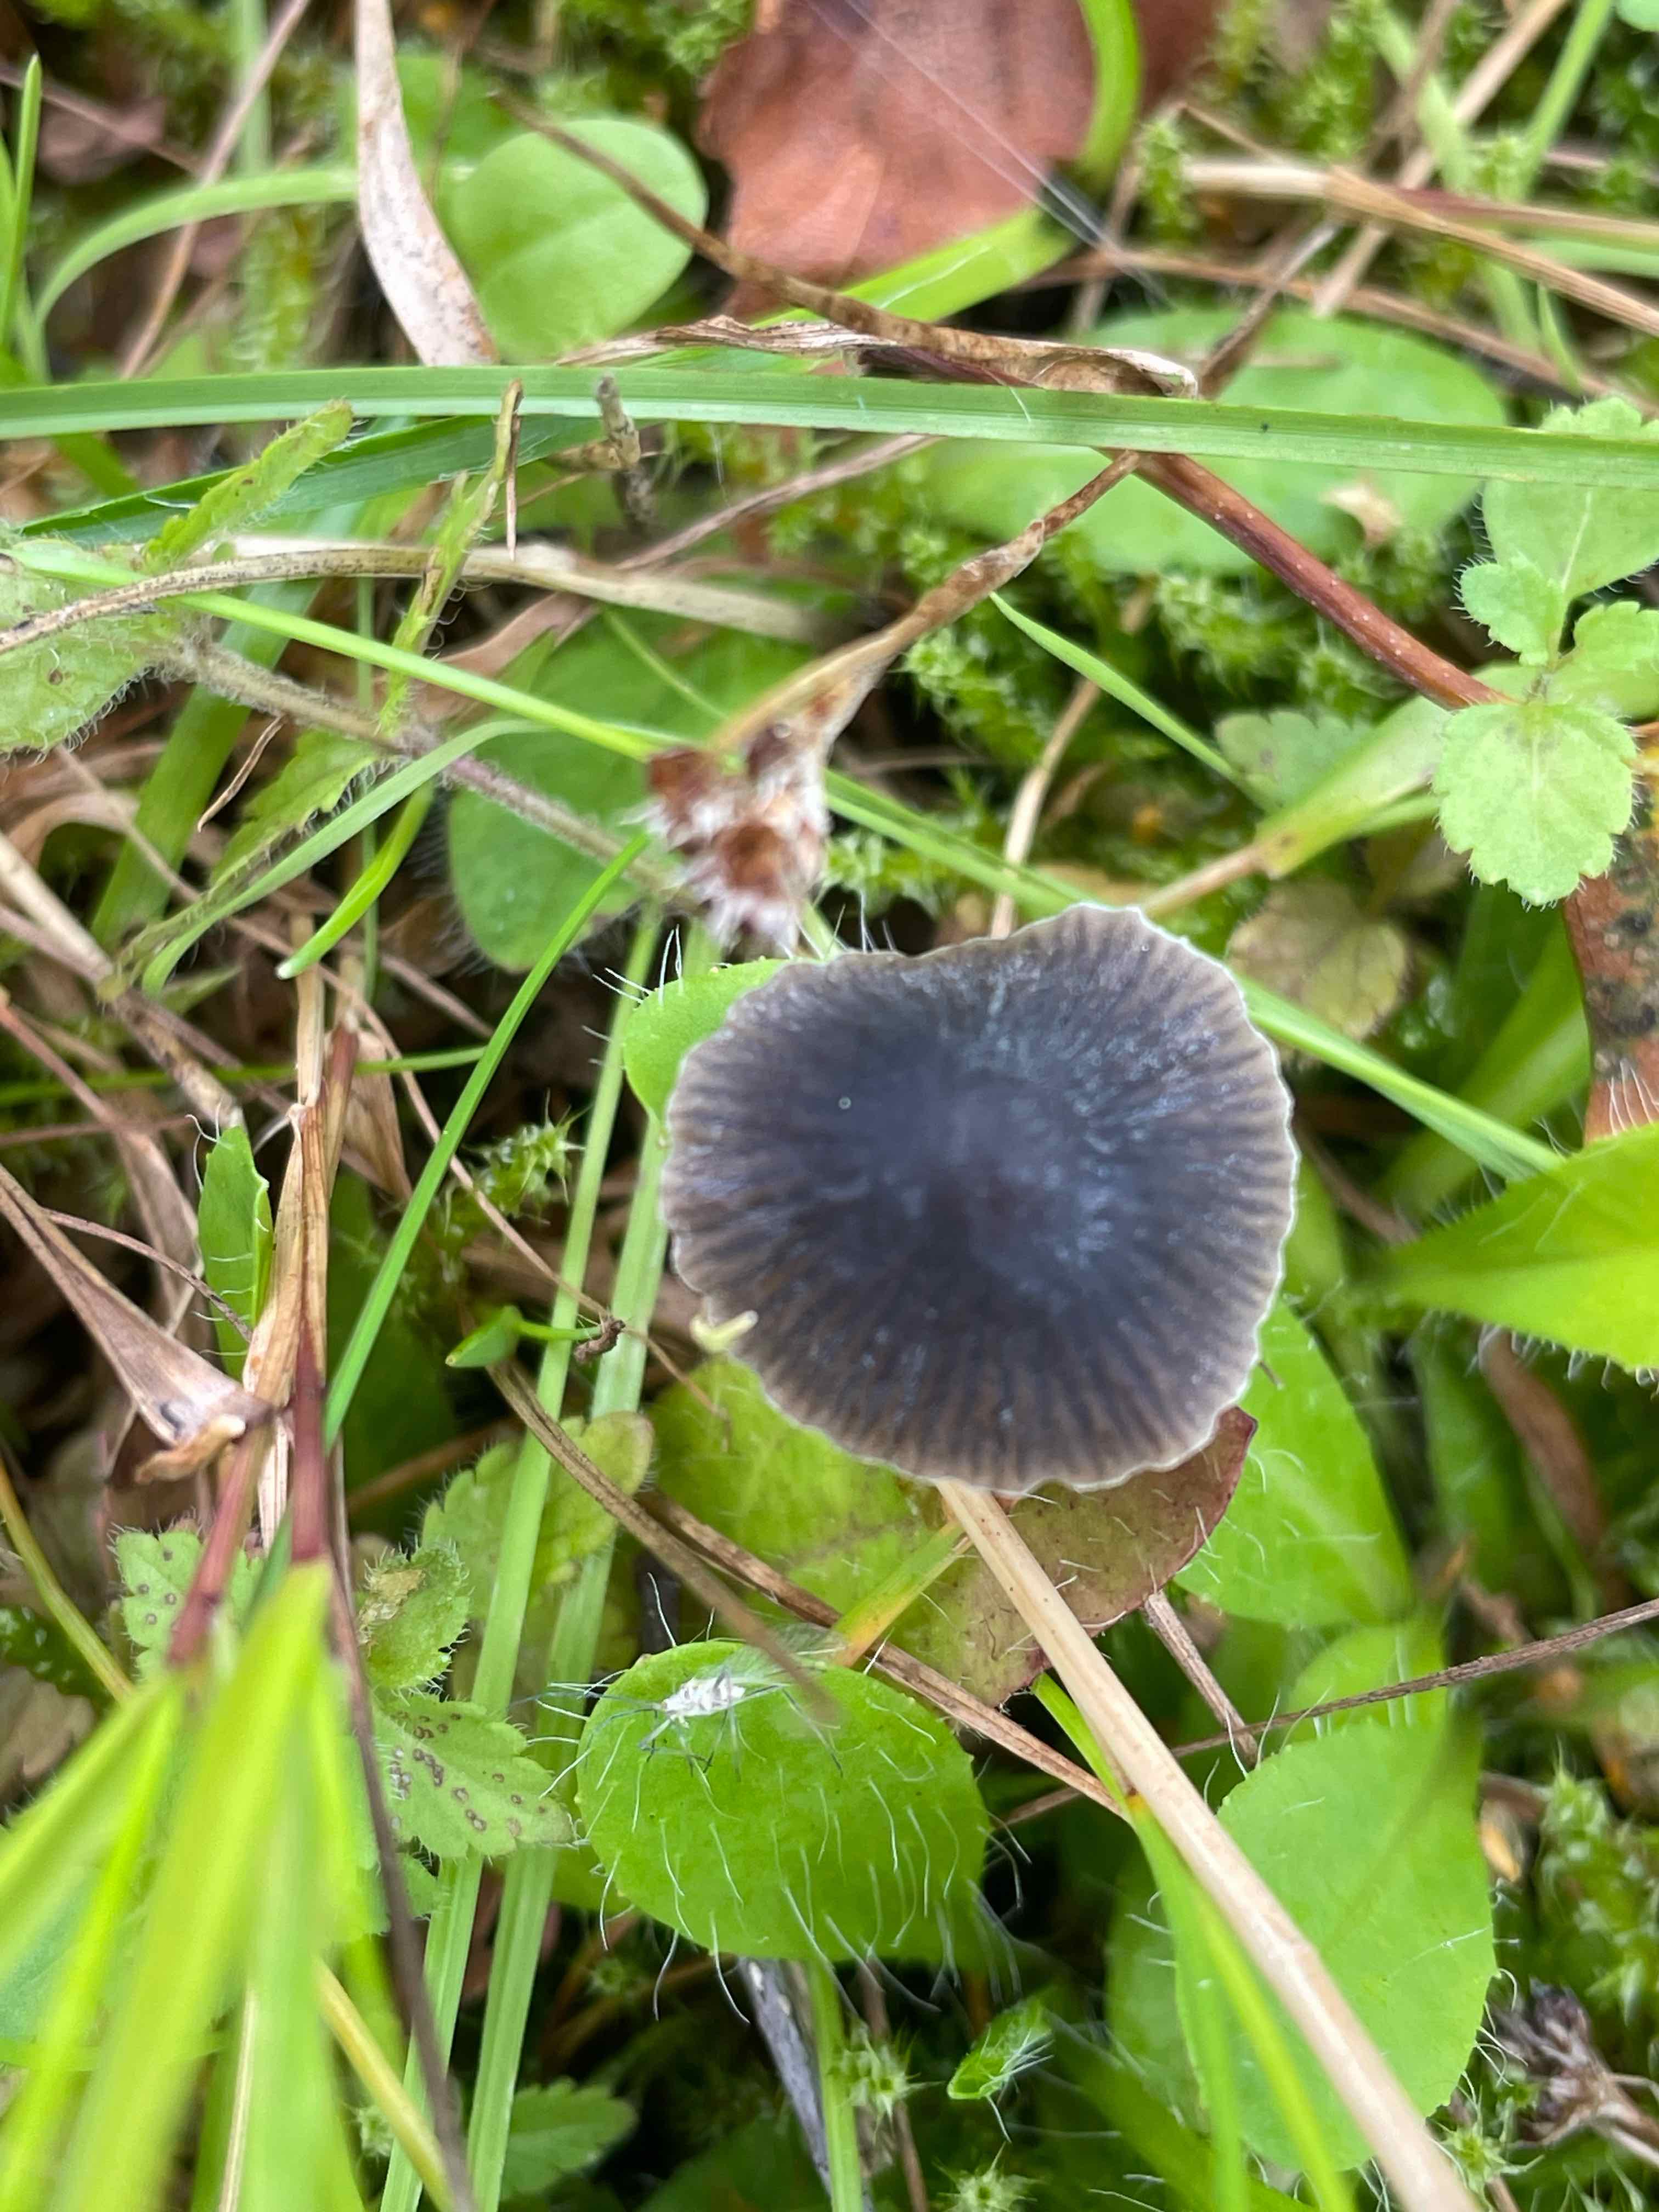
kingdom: Fungi
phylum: Basidiomycota
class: Agaricomycetes
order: Agaricales
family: Mycenaceae
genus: Mycena
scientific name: Mycena aetites
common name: plæne-huesvamp
